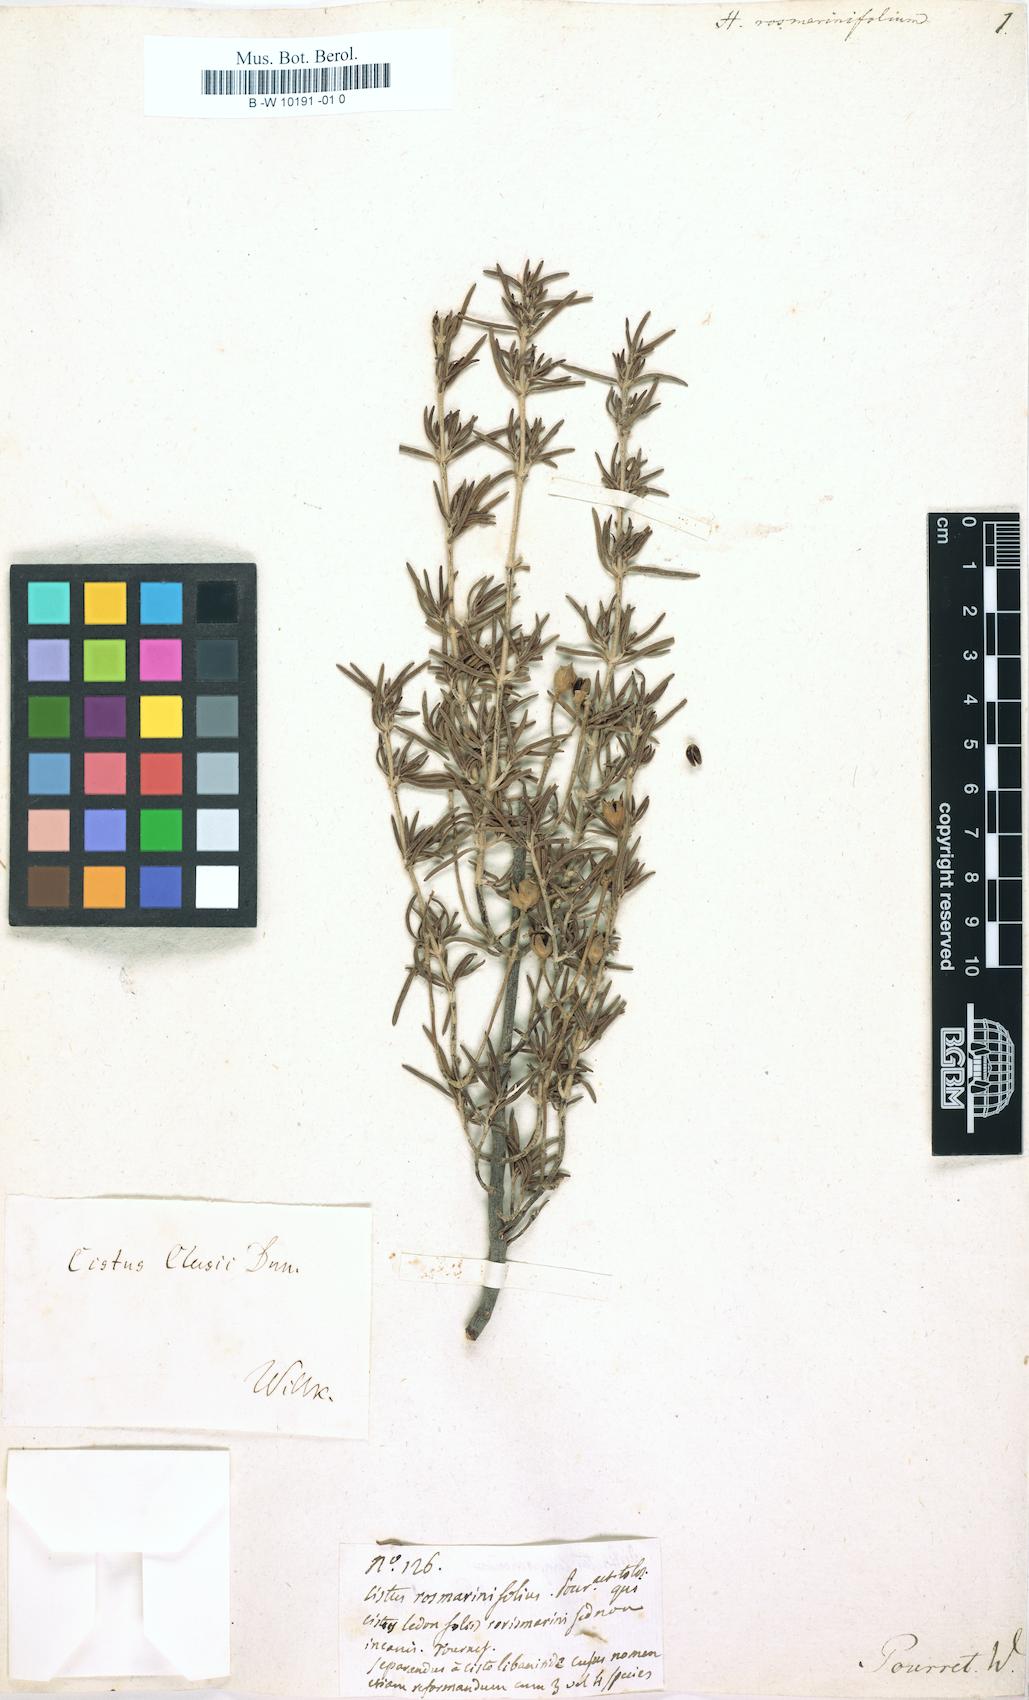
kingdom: Plantae
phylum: Tracheophyta
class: Magnoliopsida
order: Malvales
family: Cistaceae
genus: Helianthemum
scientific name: Helianthemum rosmarinifolium
